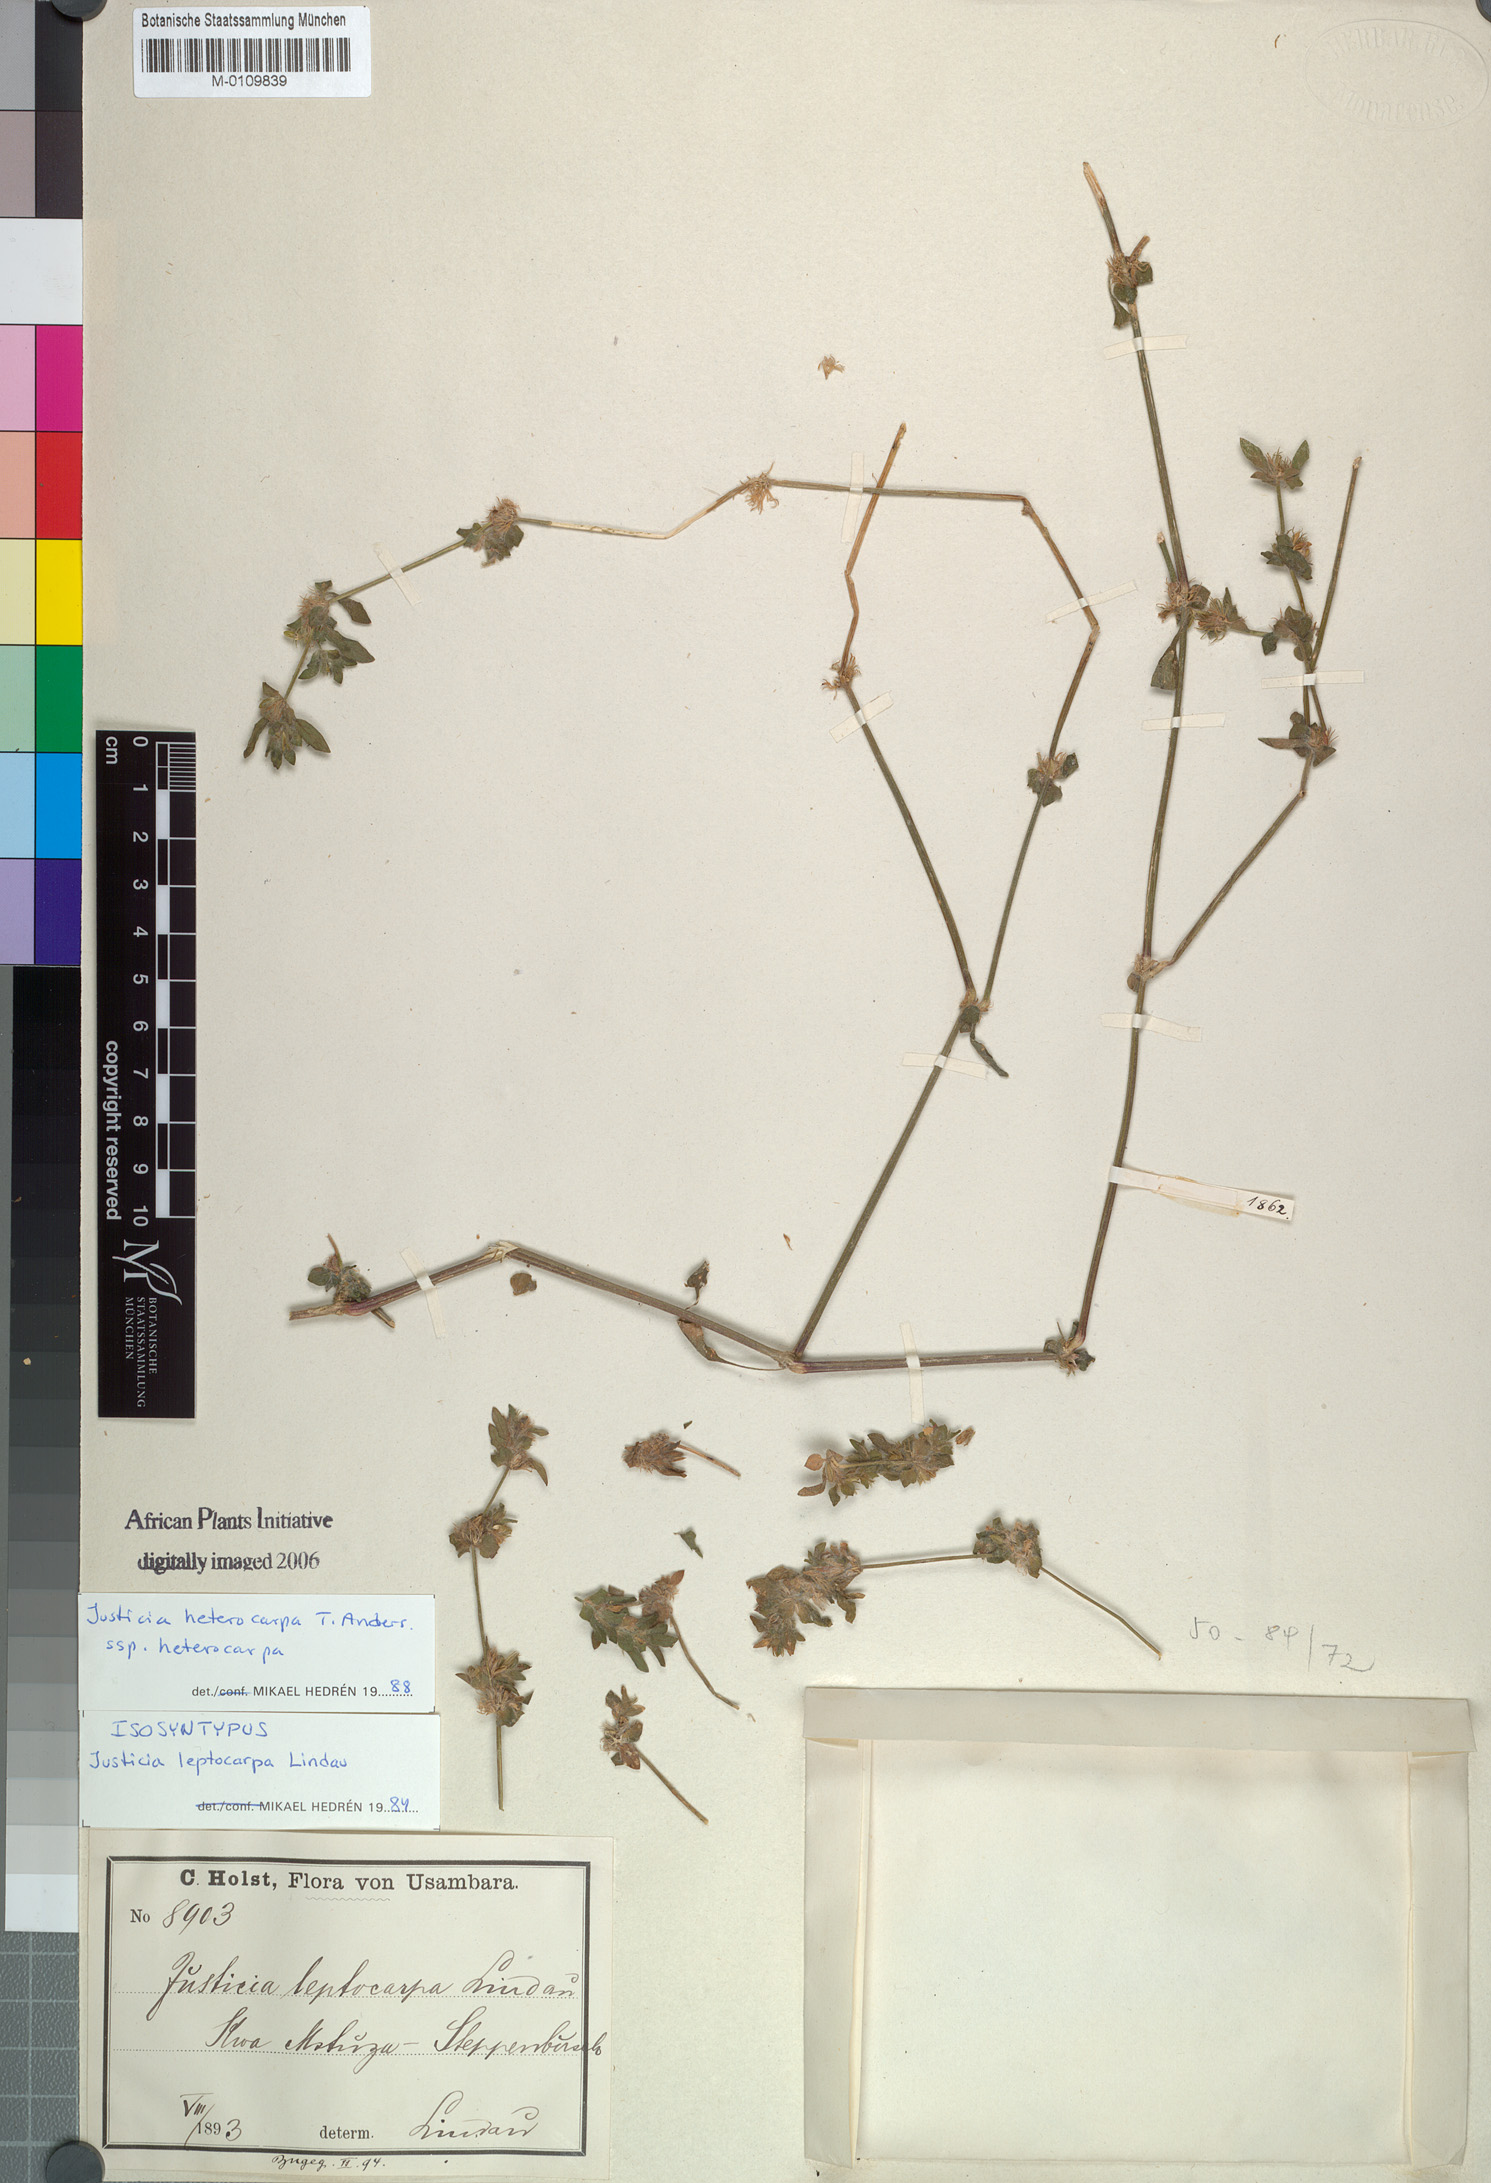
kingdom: Plantae
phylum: Tracheophyta
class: Magnoliopsida
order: Lamiales
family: Acanthaceae
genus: Justicia
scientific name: Justicia heterocarpa
